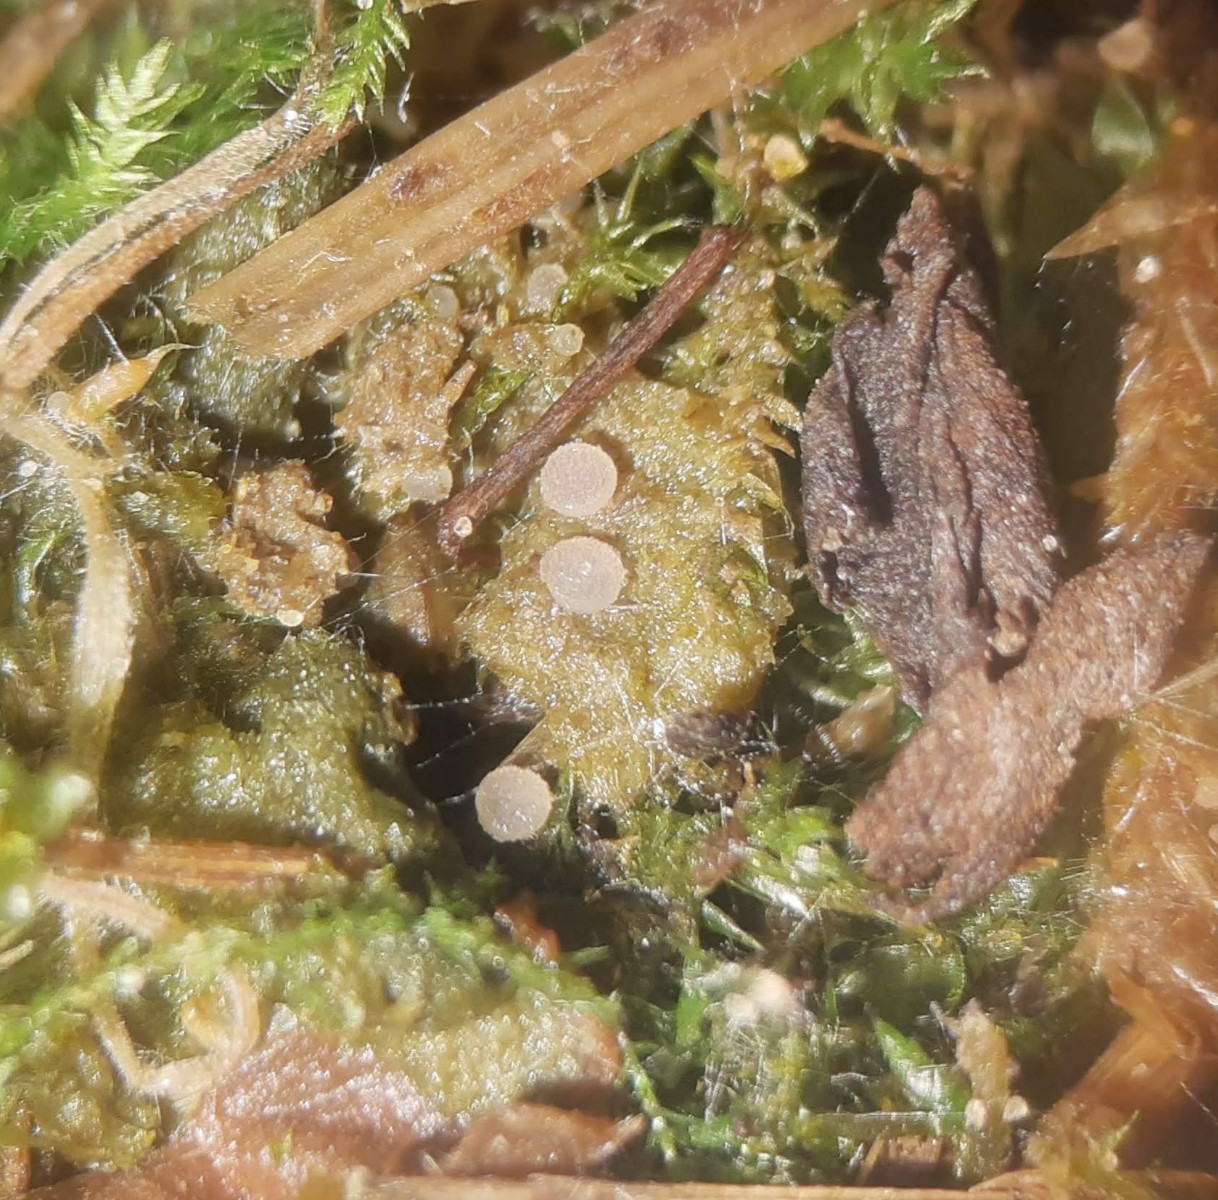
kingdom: Fungi
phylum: Ascomycota
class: Pezizomycetes
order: Pezizales
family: Ascobolaceae
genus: Ascobolus
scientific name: Ascobolus brassicae
